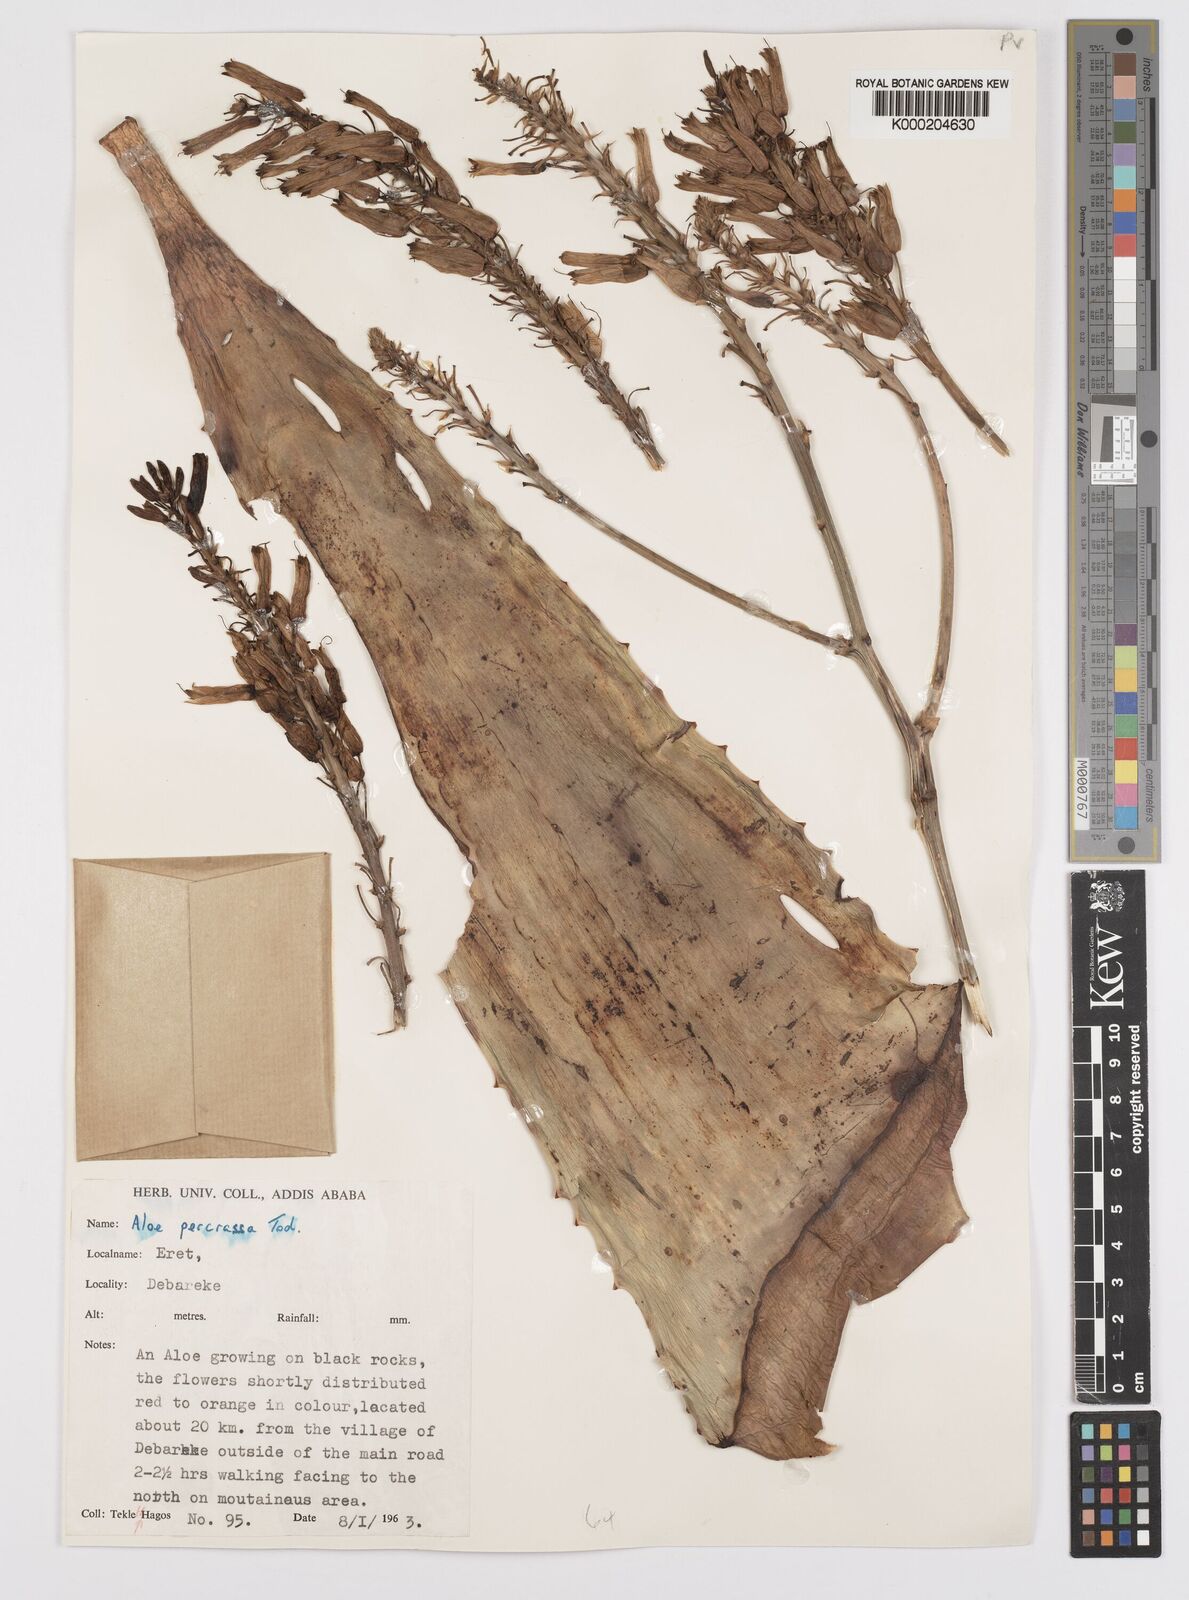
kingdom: Plantae
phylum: Tracheophyta
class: Liliopsida
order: Asparagales
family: Asphodelaceae
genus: Aloe
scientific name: Aloe percrassa
